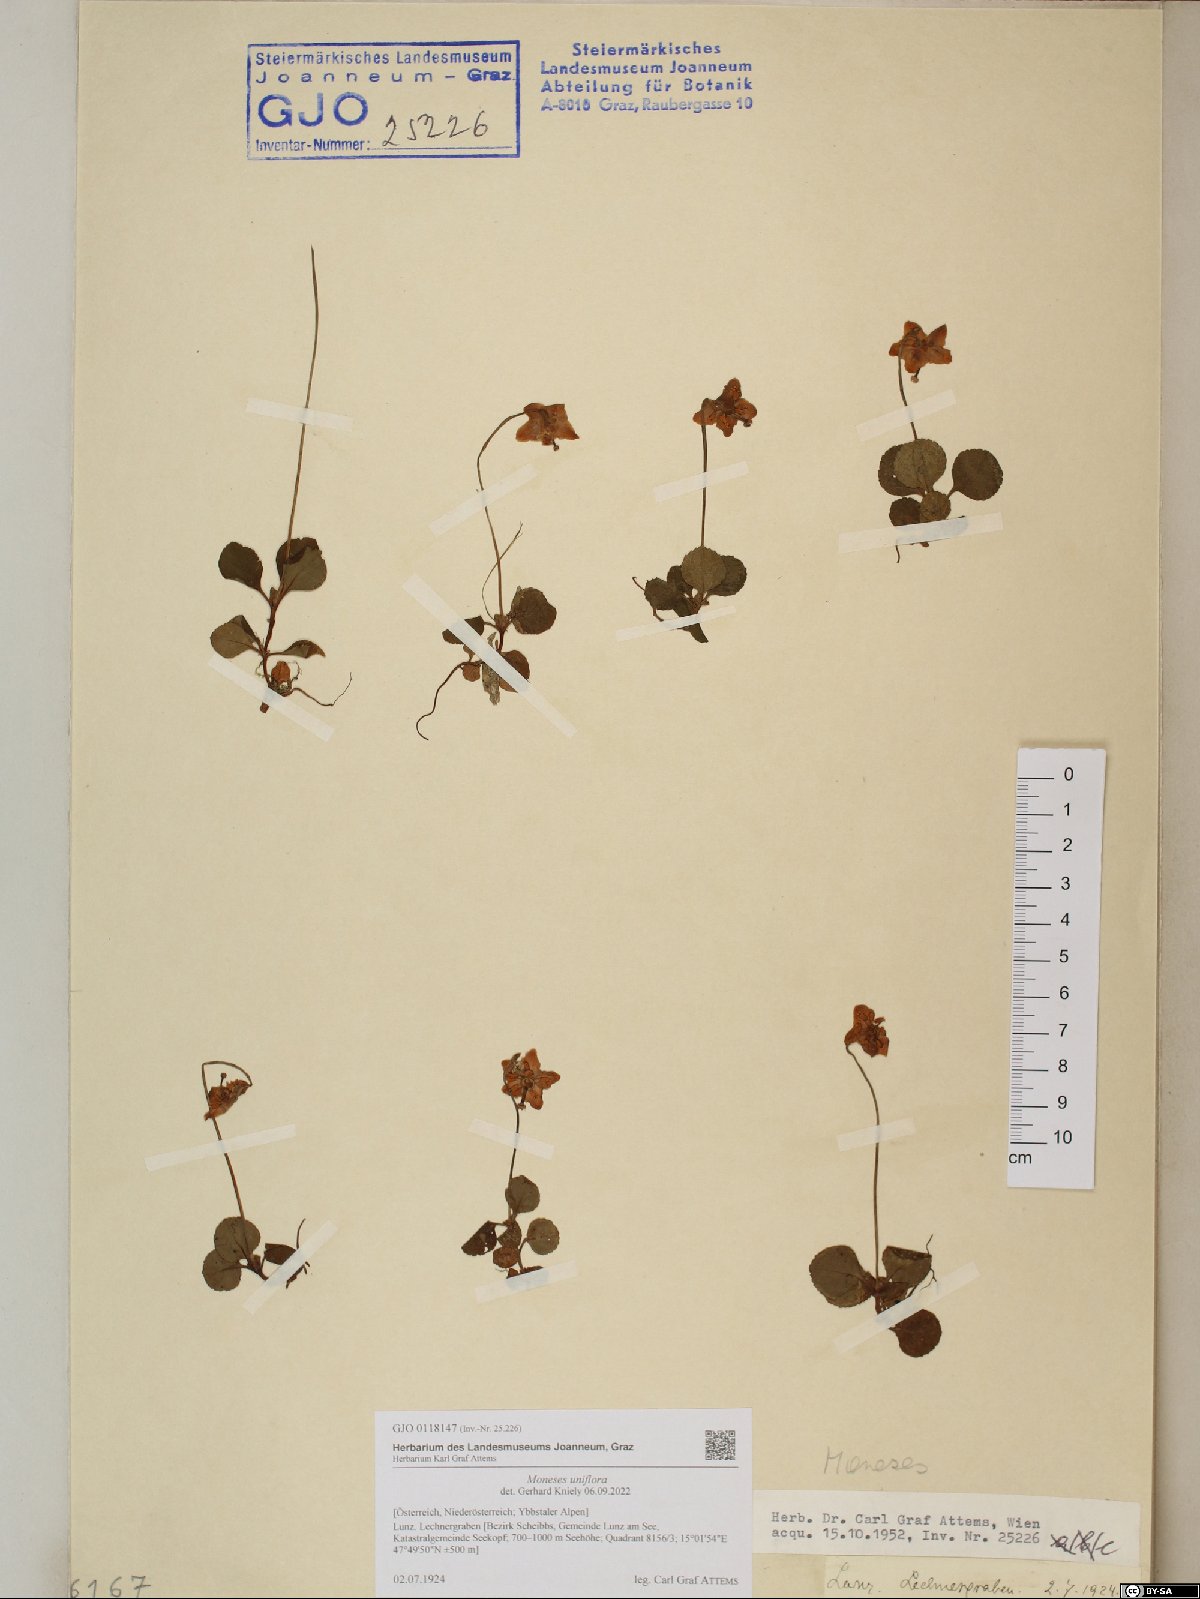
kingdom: Plantae
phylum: Tracheophyta
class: Magnoliopsida
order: Ericales
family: Ericaceae
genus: Moneses
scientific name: Moneses uniflora
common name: One-flowered wintergreen
